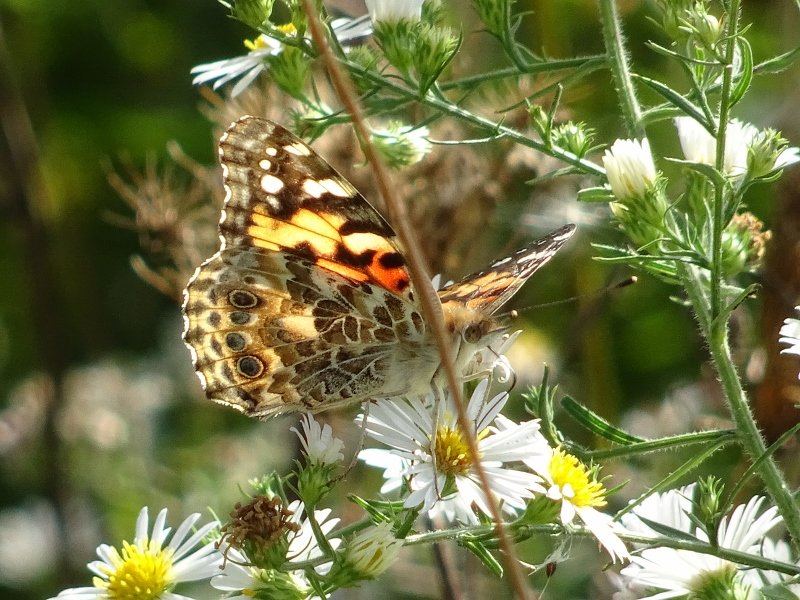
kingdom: Animalia
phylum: Arthropoda
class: Insecta
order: Lepidoptera
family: Nymphalidae
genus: Vanessa
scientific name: Vanessa cardui
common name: Painted Lady
